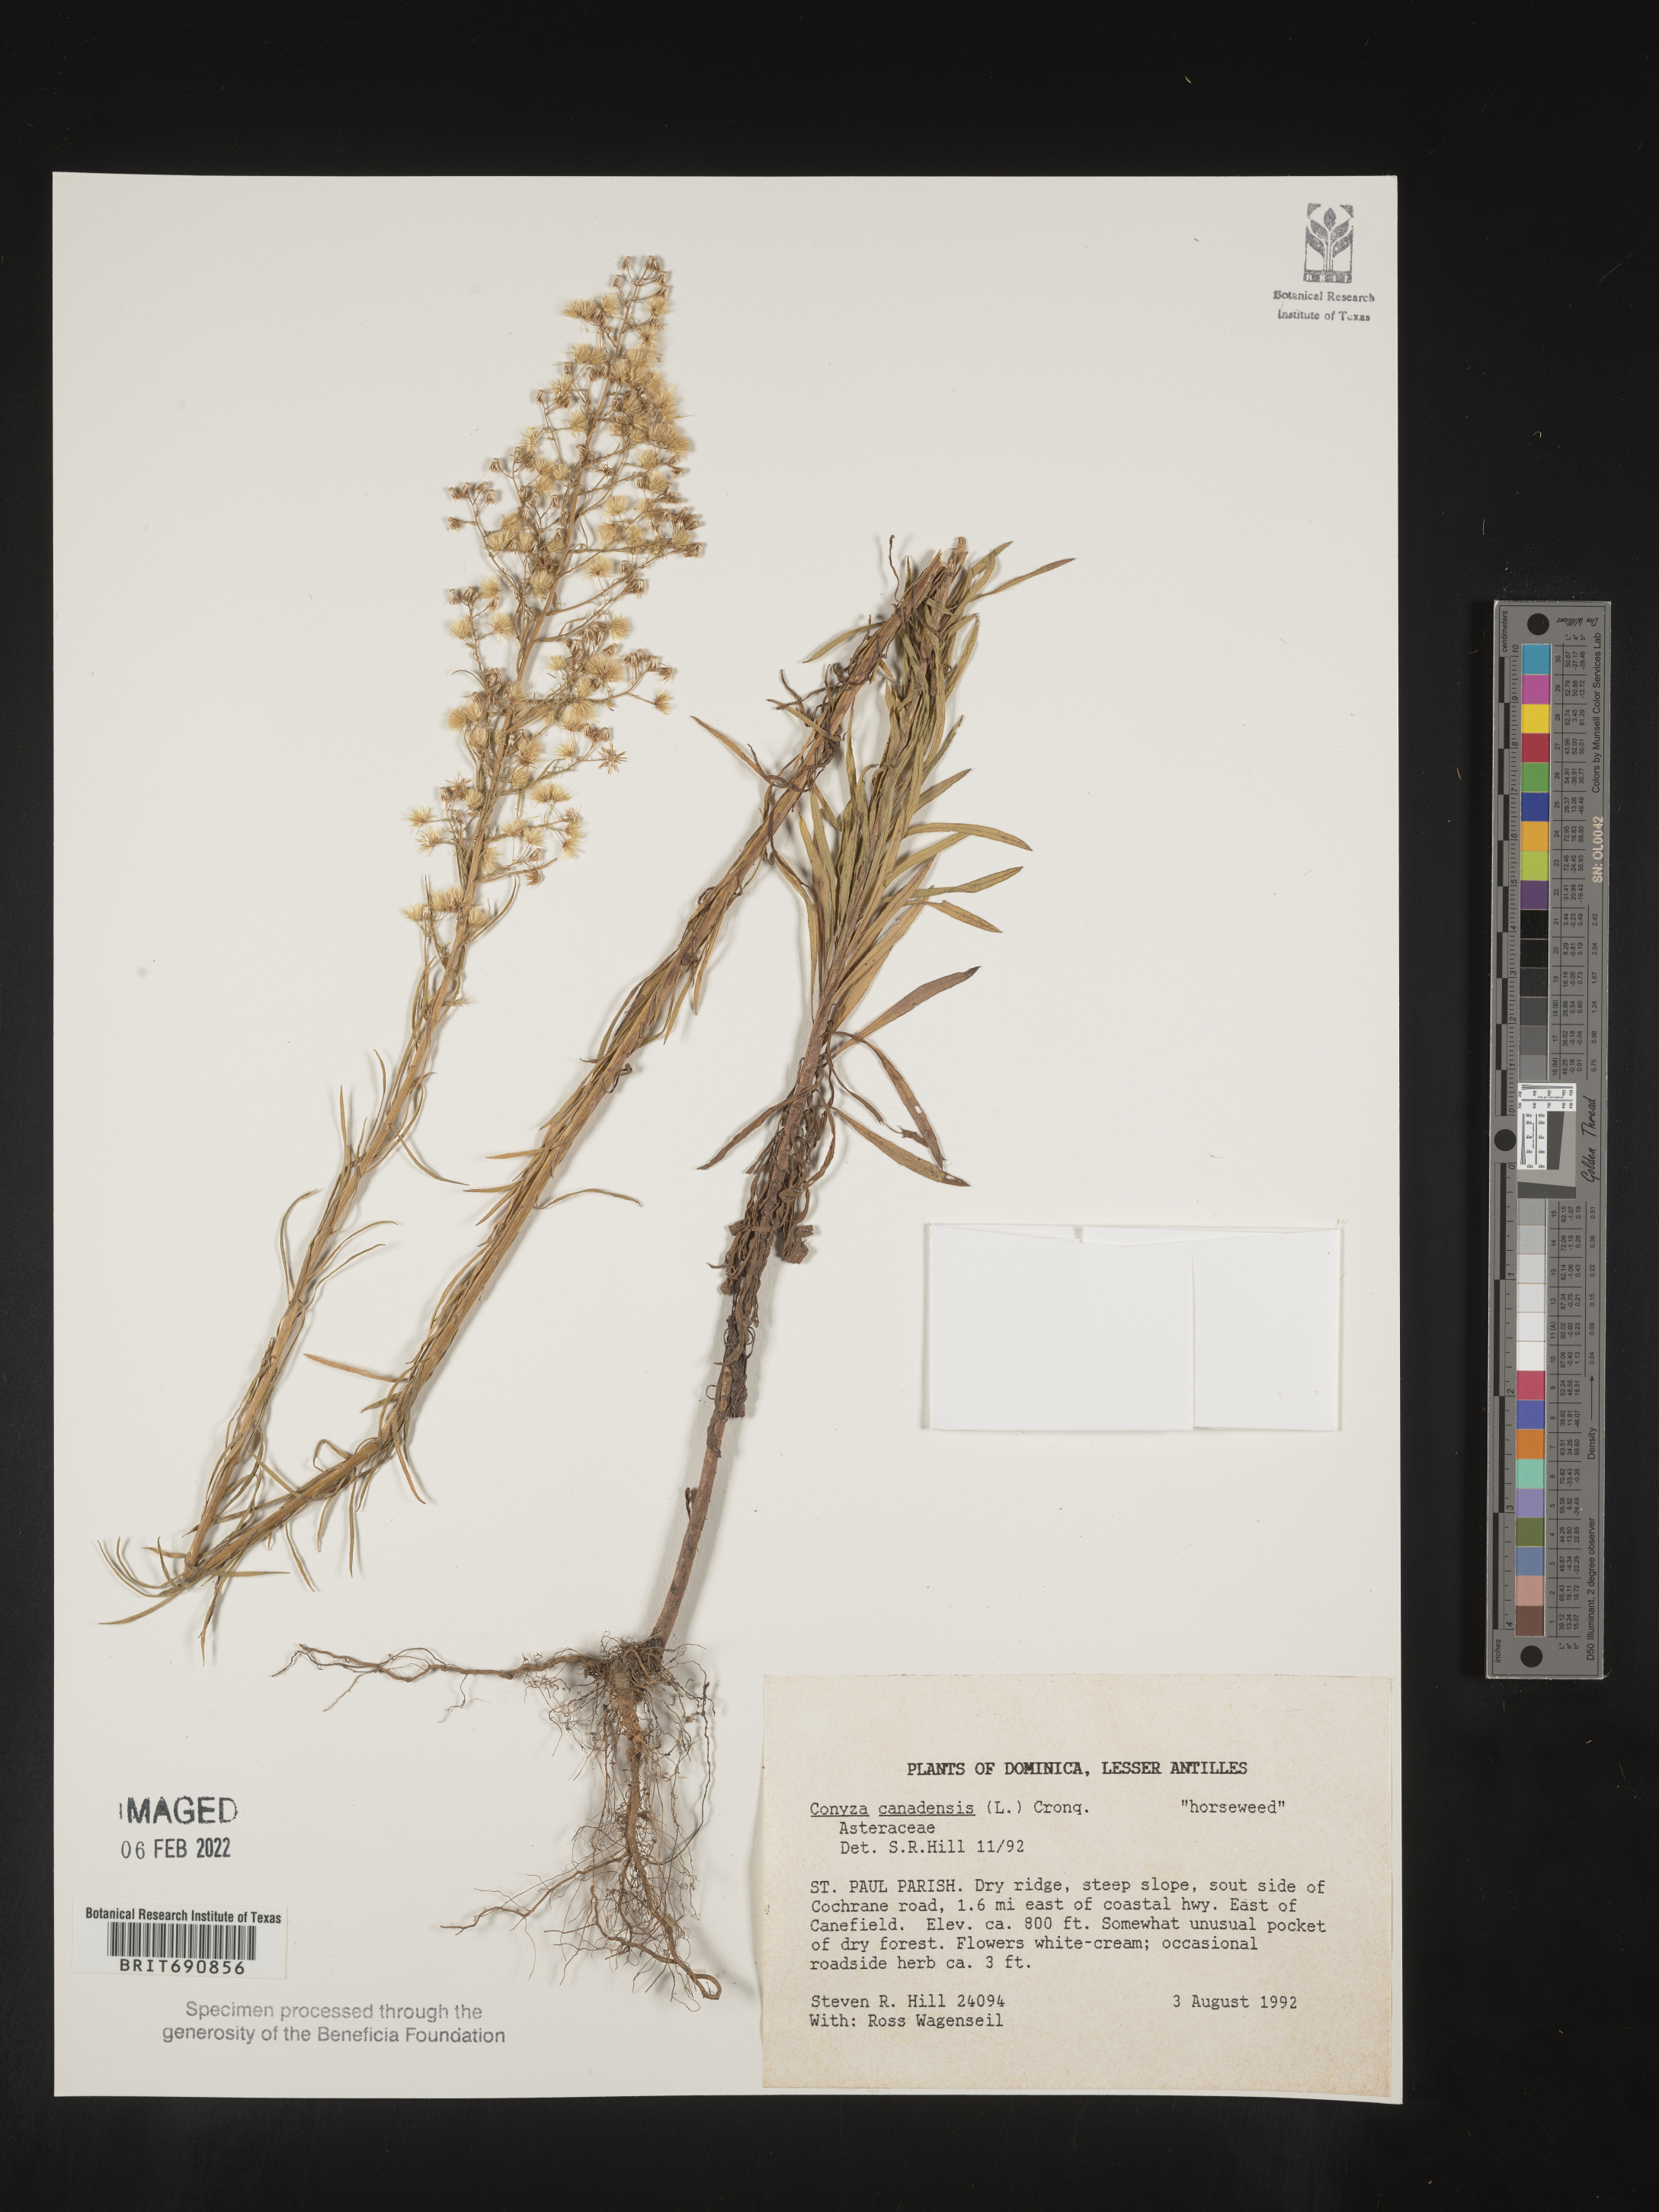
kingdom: Plantae
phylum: Tracheophyta
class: Magnoliopsida
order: Asterales
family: Asteraceae
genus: Conyza
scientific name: Conyza
